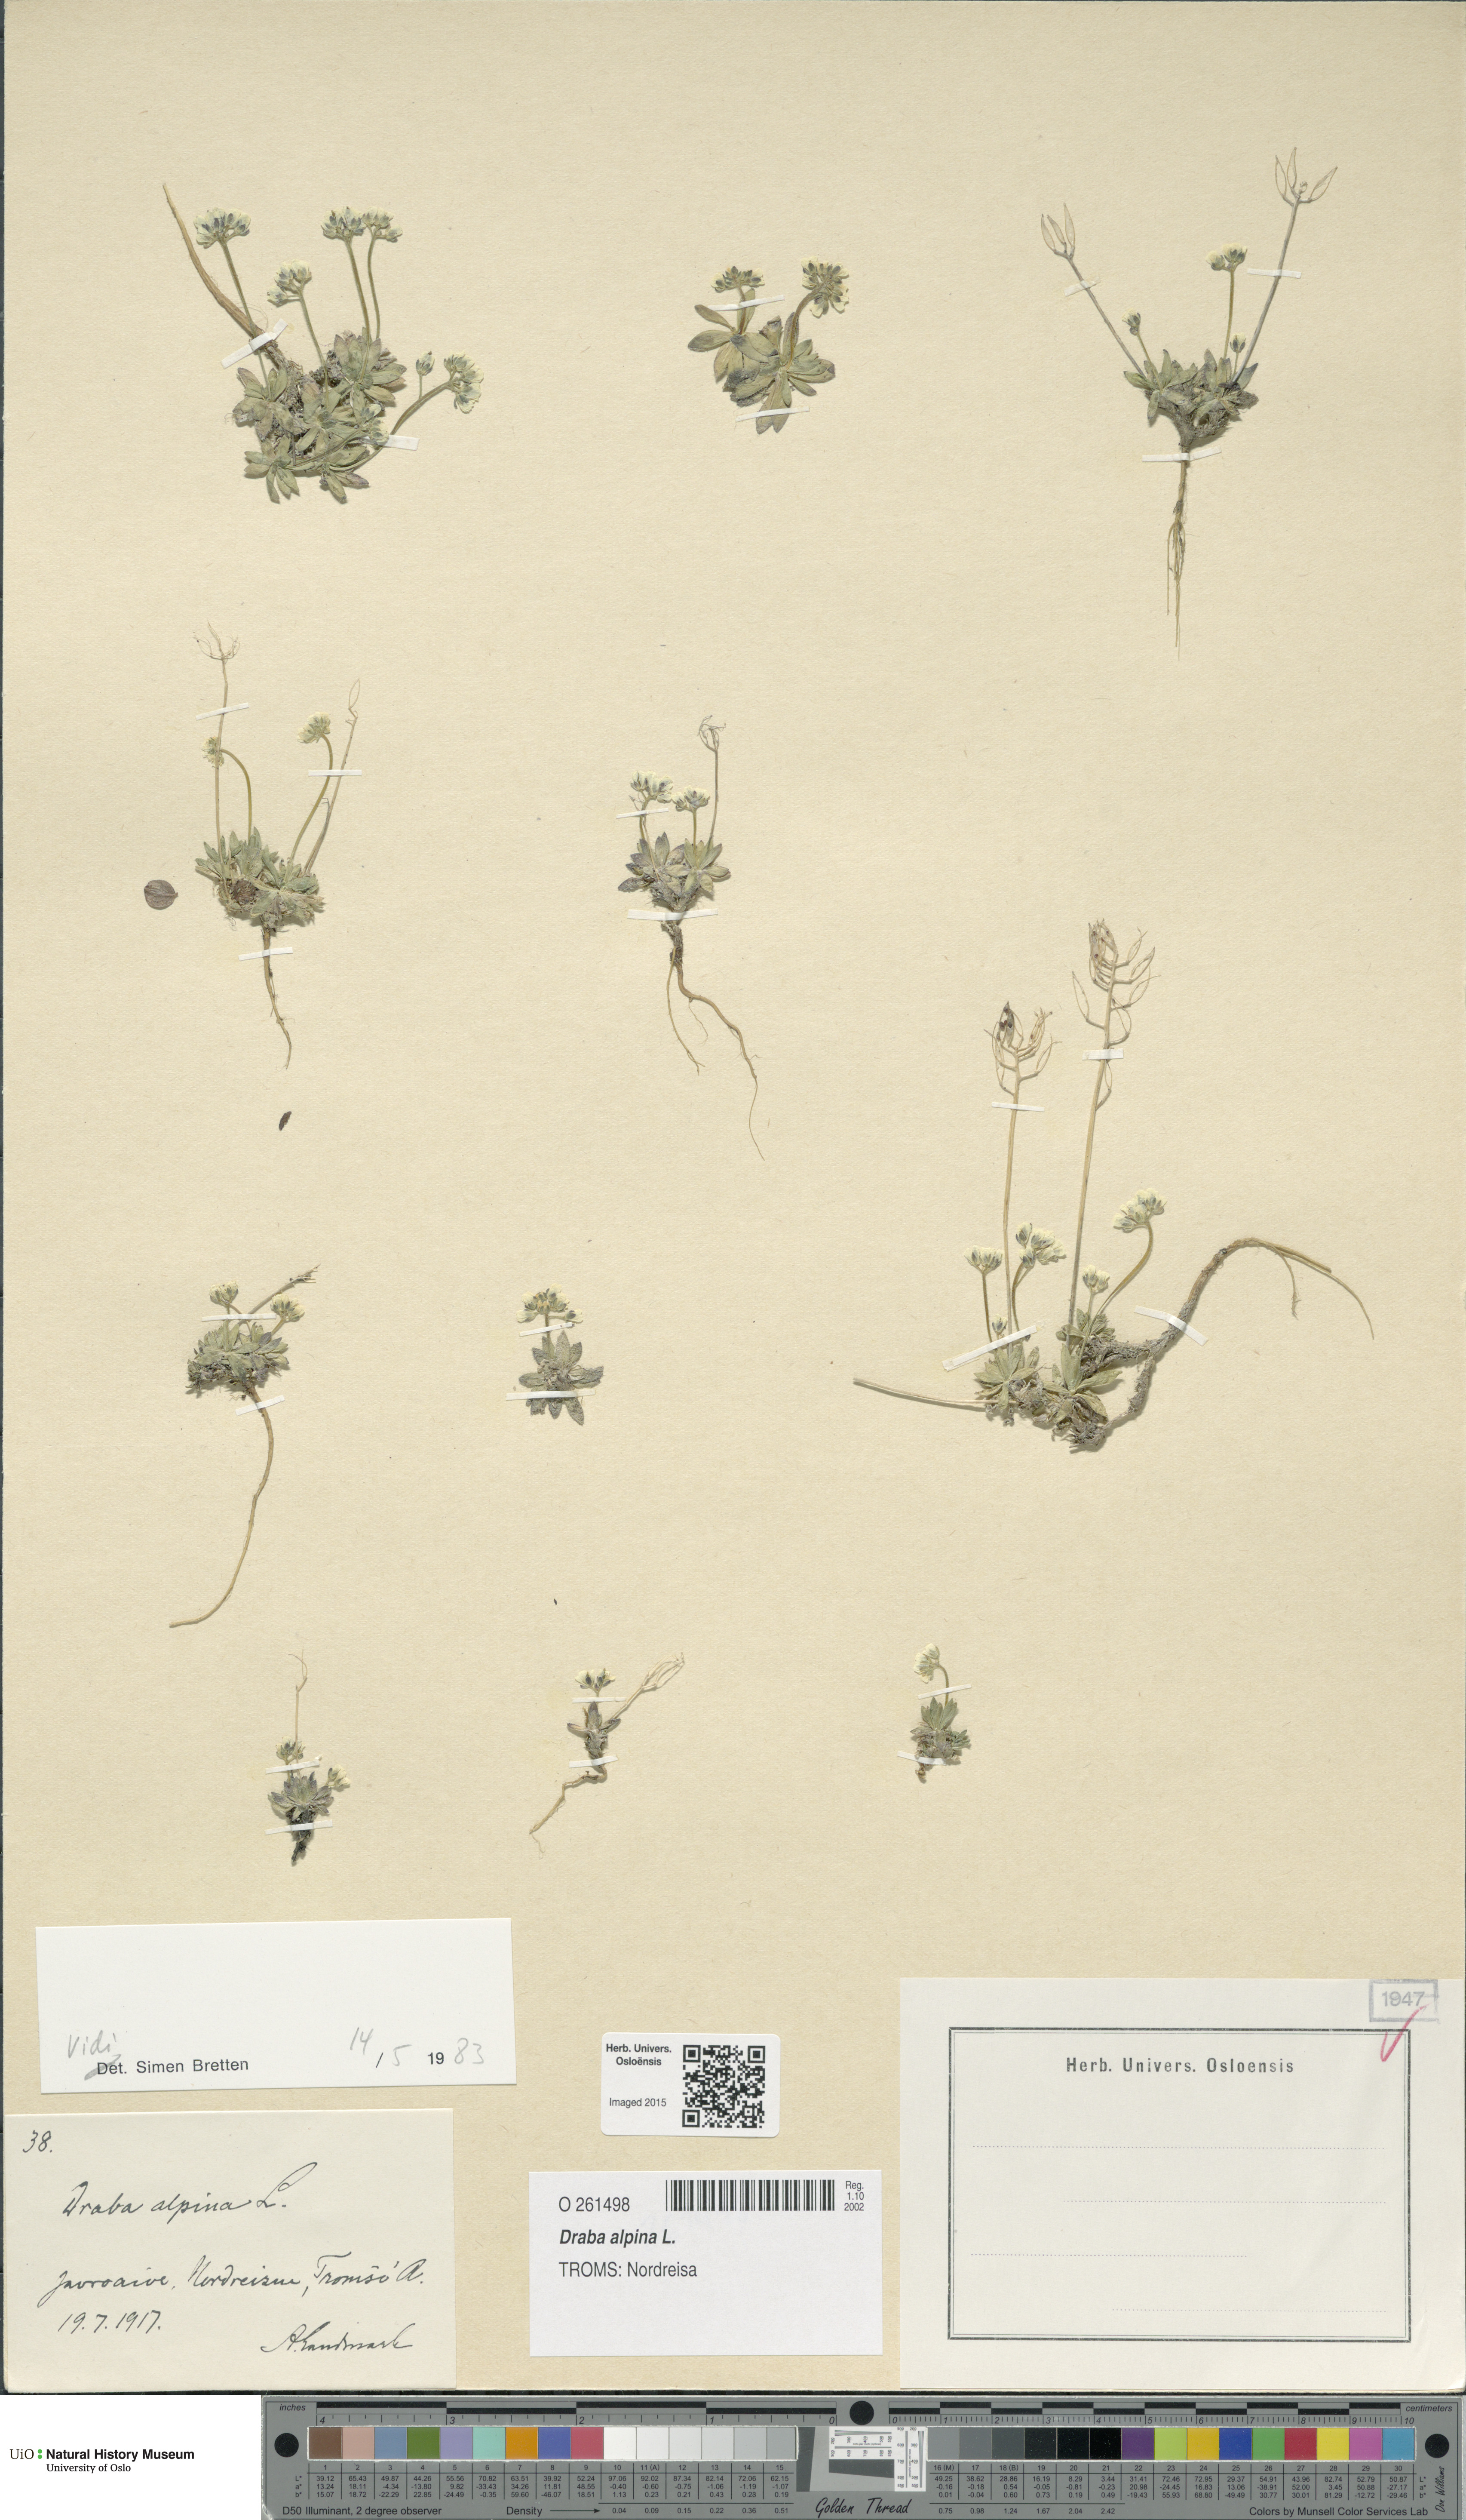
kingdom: Plantae
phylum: Tracheophyta
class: Magnoliopsida
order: Brassicales
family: Brassicaceae
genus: Draba
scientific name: Draba alpina
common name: Alpine draba
